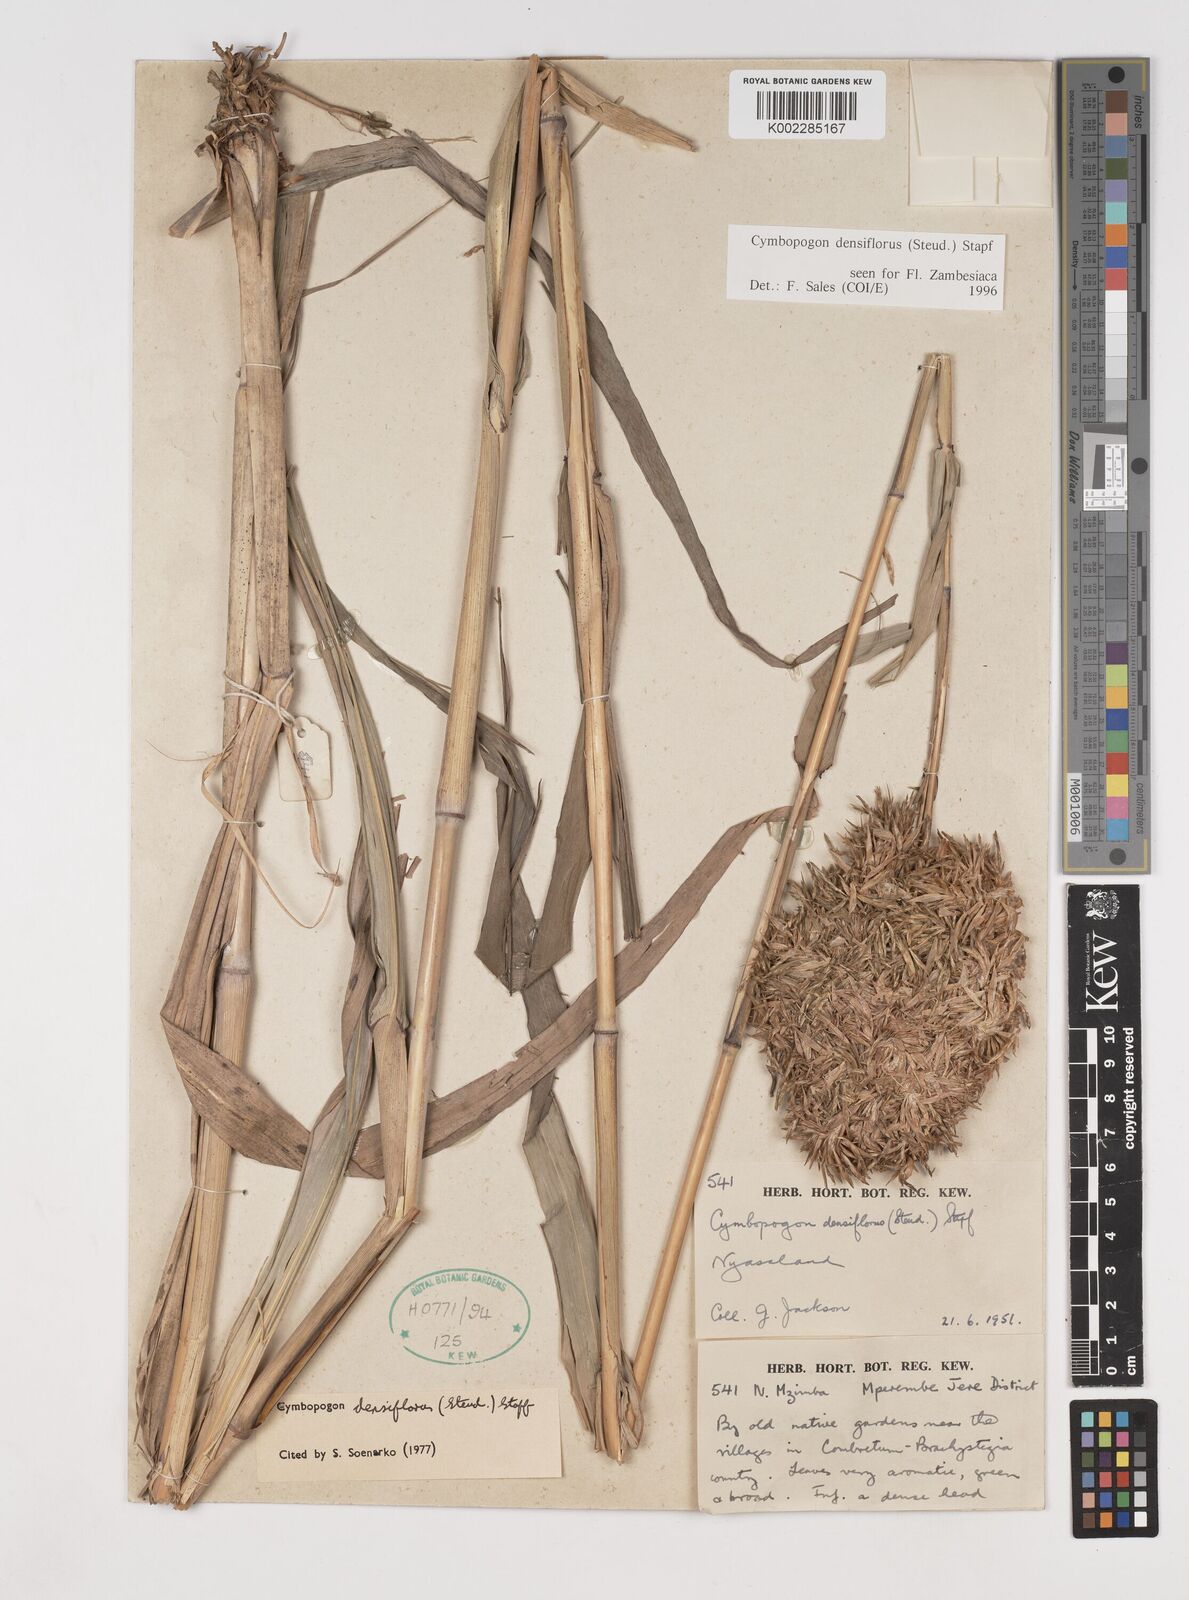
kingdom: Plantae
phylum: Tracheophyta
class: Liliopsida
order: Poales
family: Poaceae
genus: Cymbopogon
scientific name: Cymbopogon densiflorus
